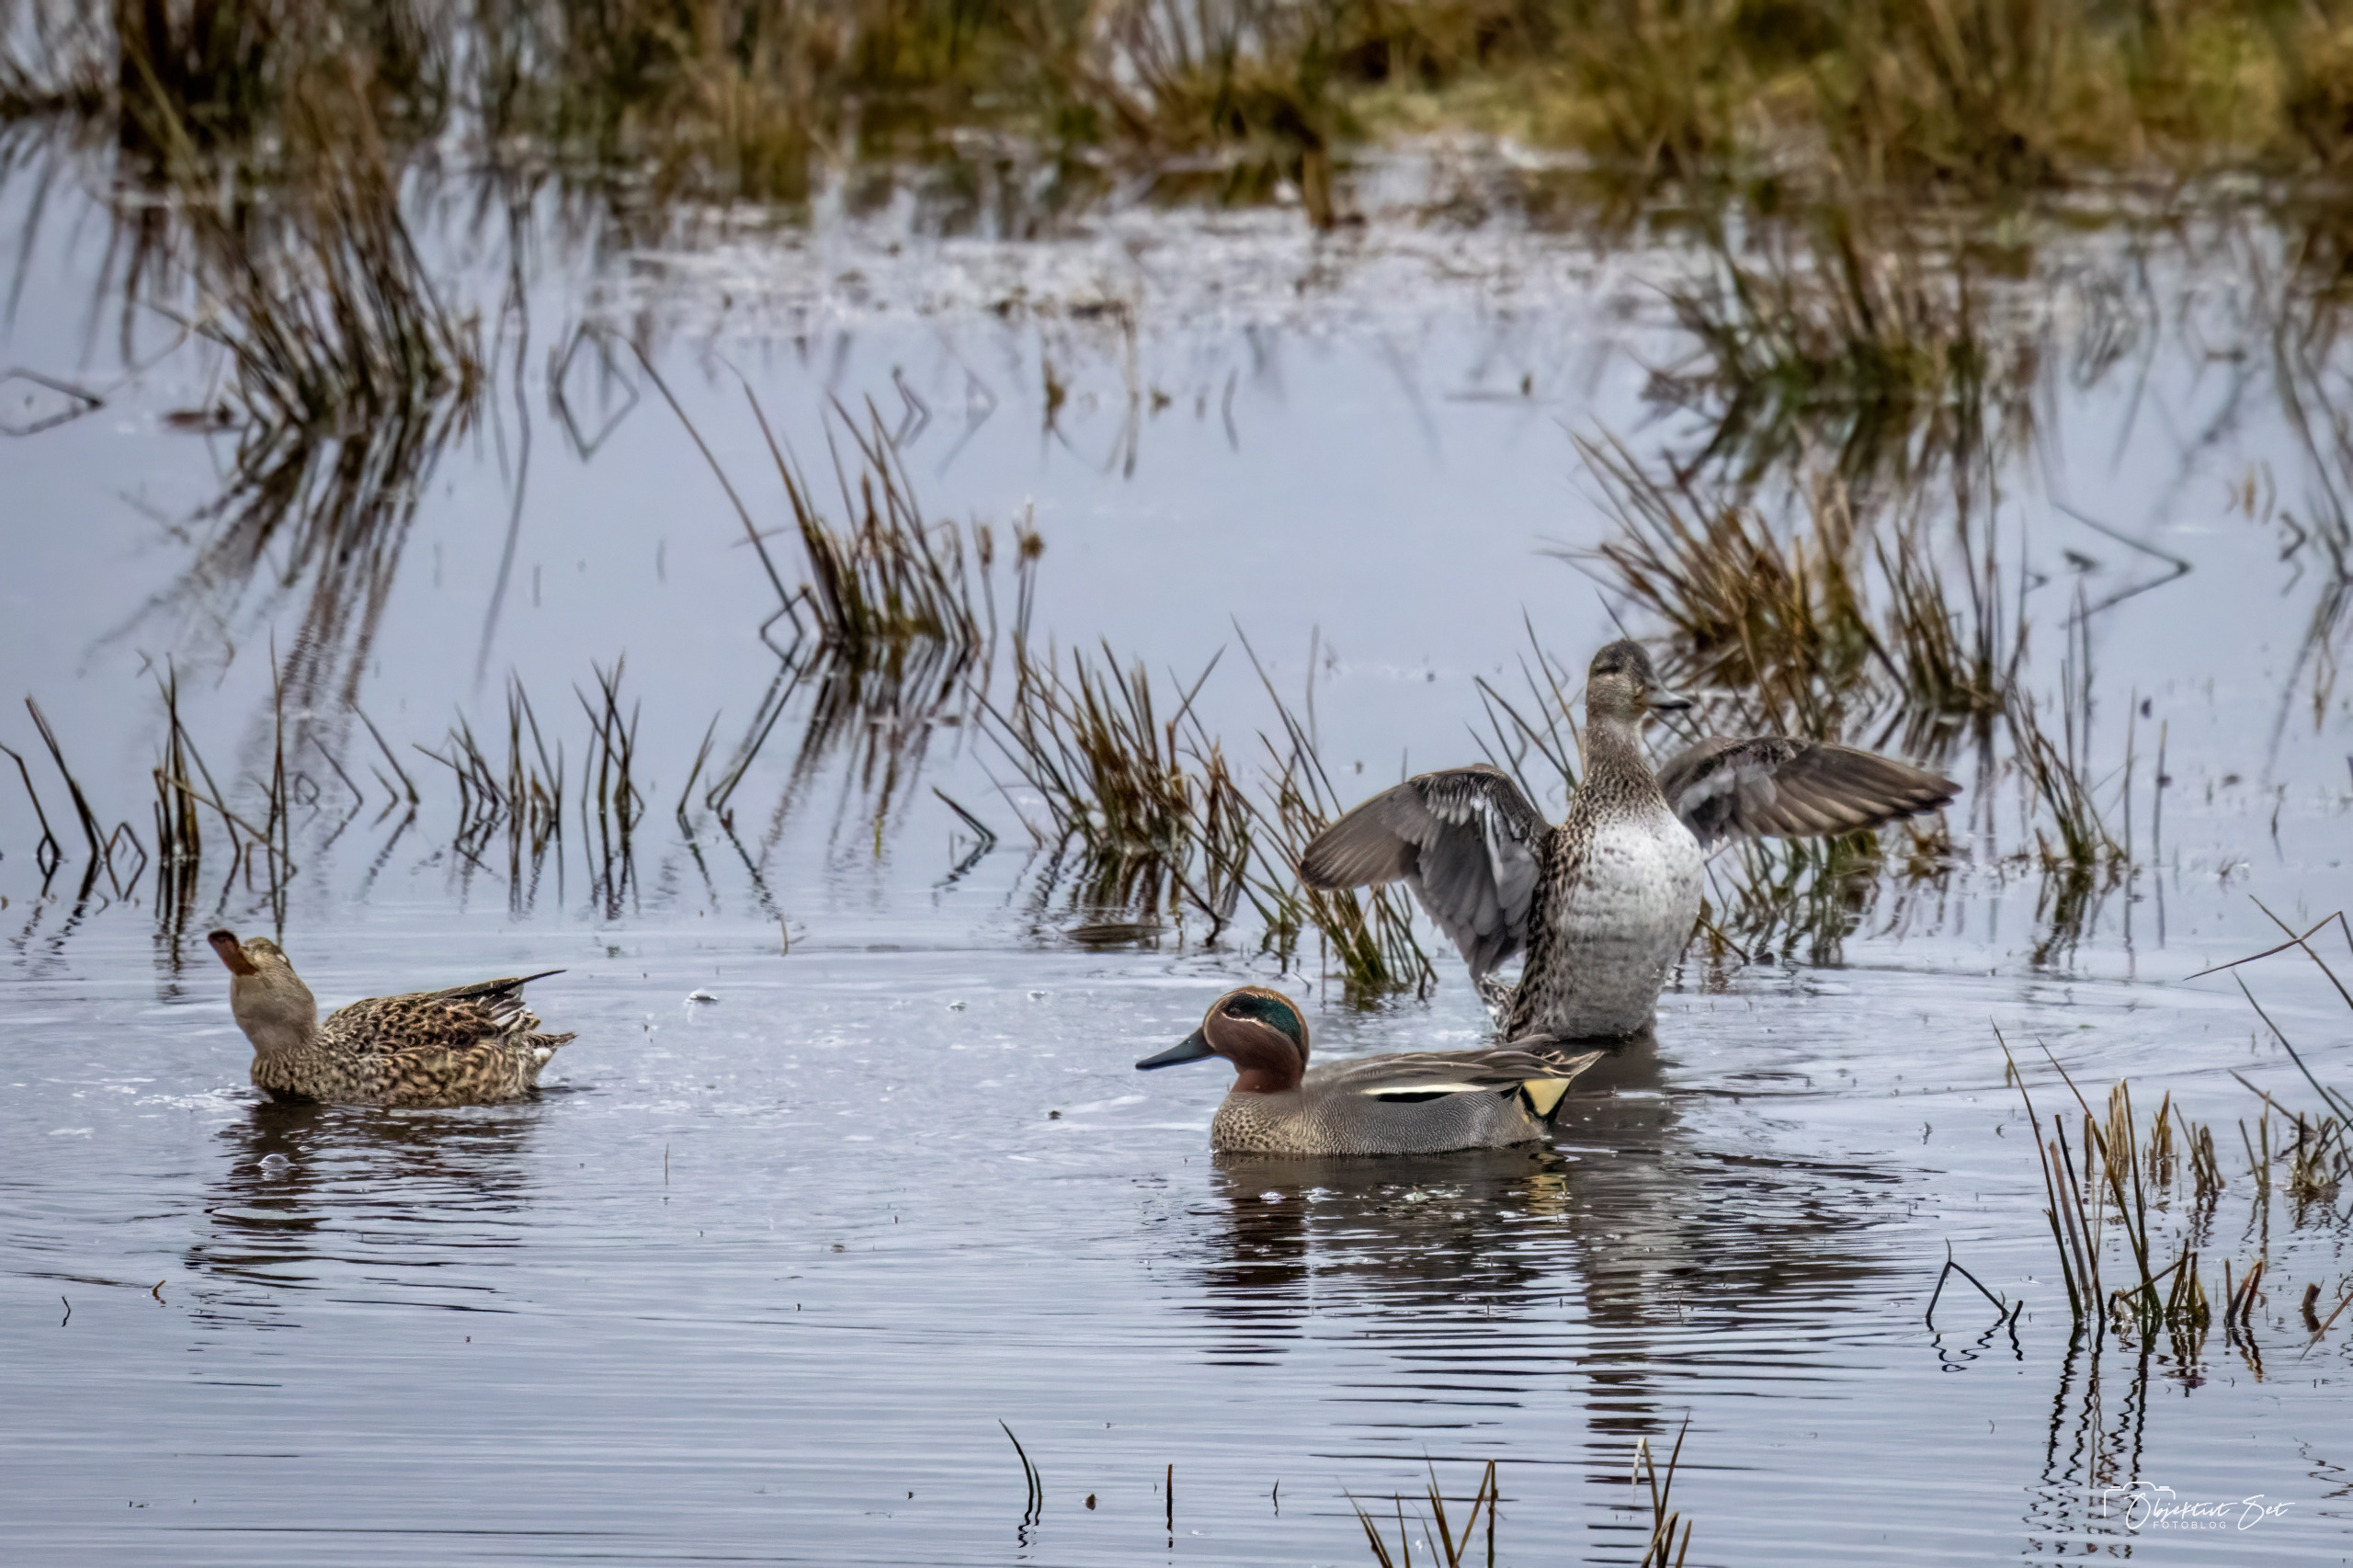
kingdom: Animalia
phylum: Chordata
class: Aves
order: Anseriformes
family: Anatidae
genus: Anas
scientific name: Anas crecca
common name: Krikand
